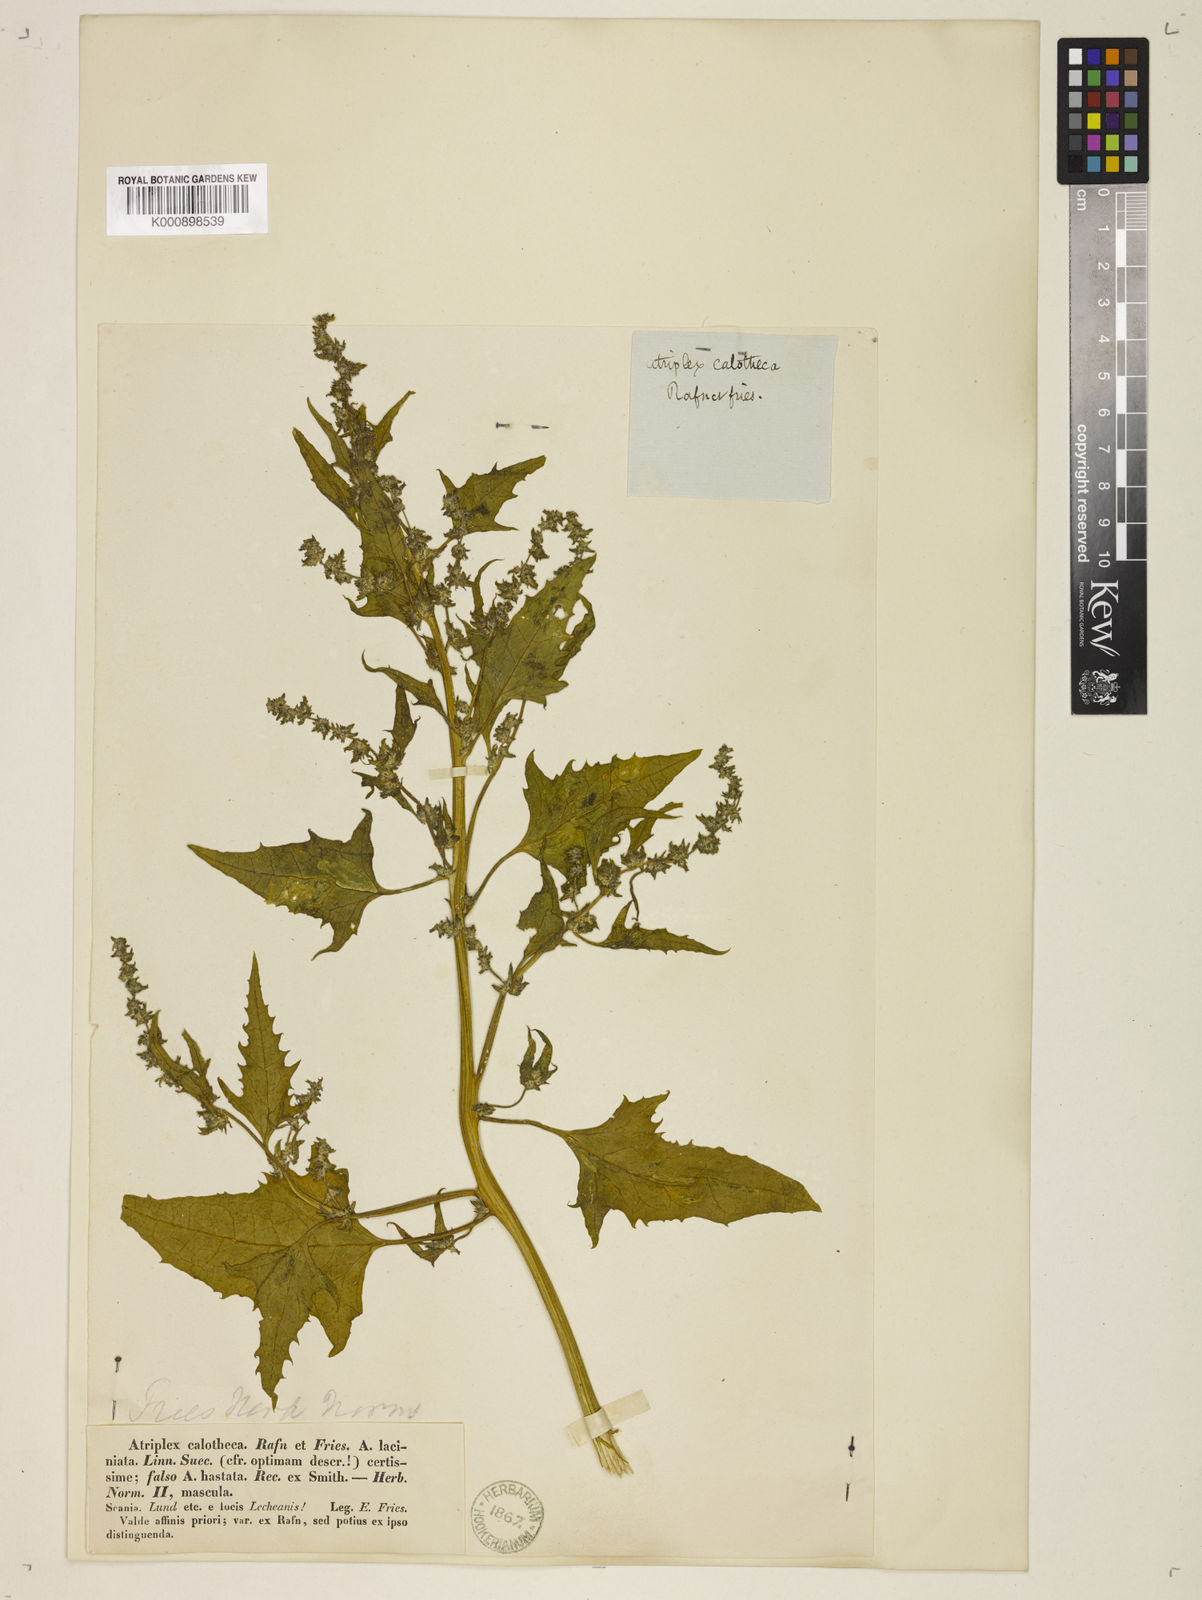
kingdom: Plantae
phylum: Tracheophyta
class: Magnoliopsida
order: Caryophyllales
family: Amaranthaceae
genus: Atriplex
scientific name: Atriplex calotheca
